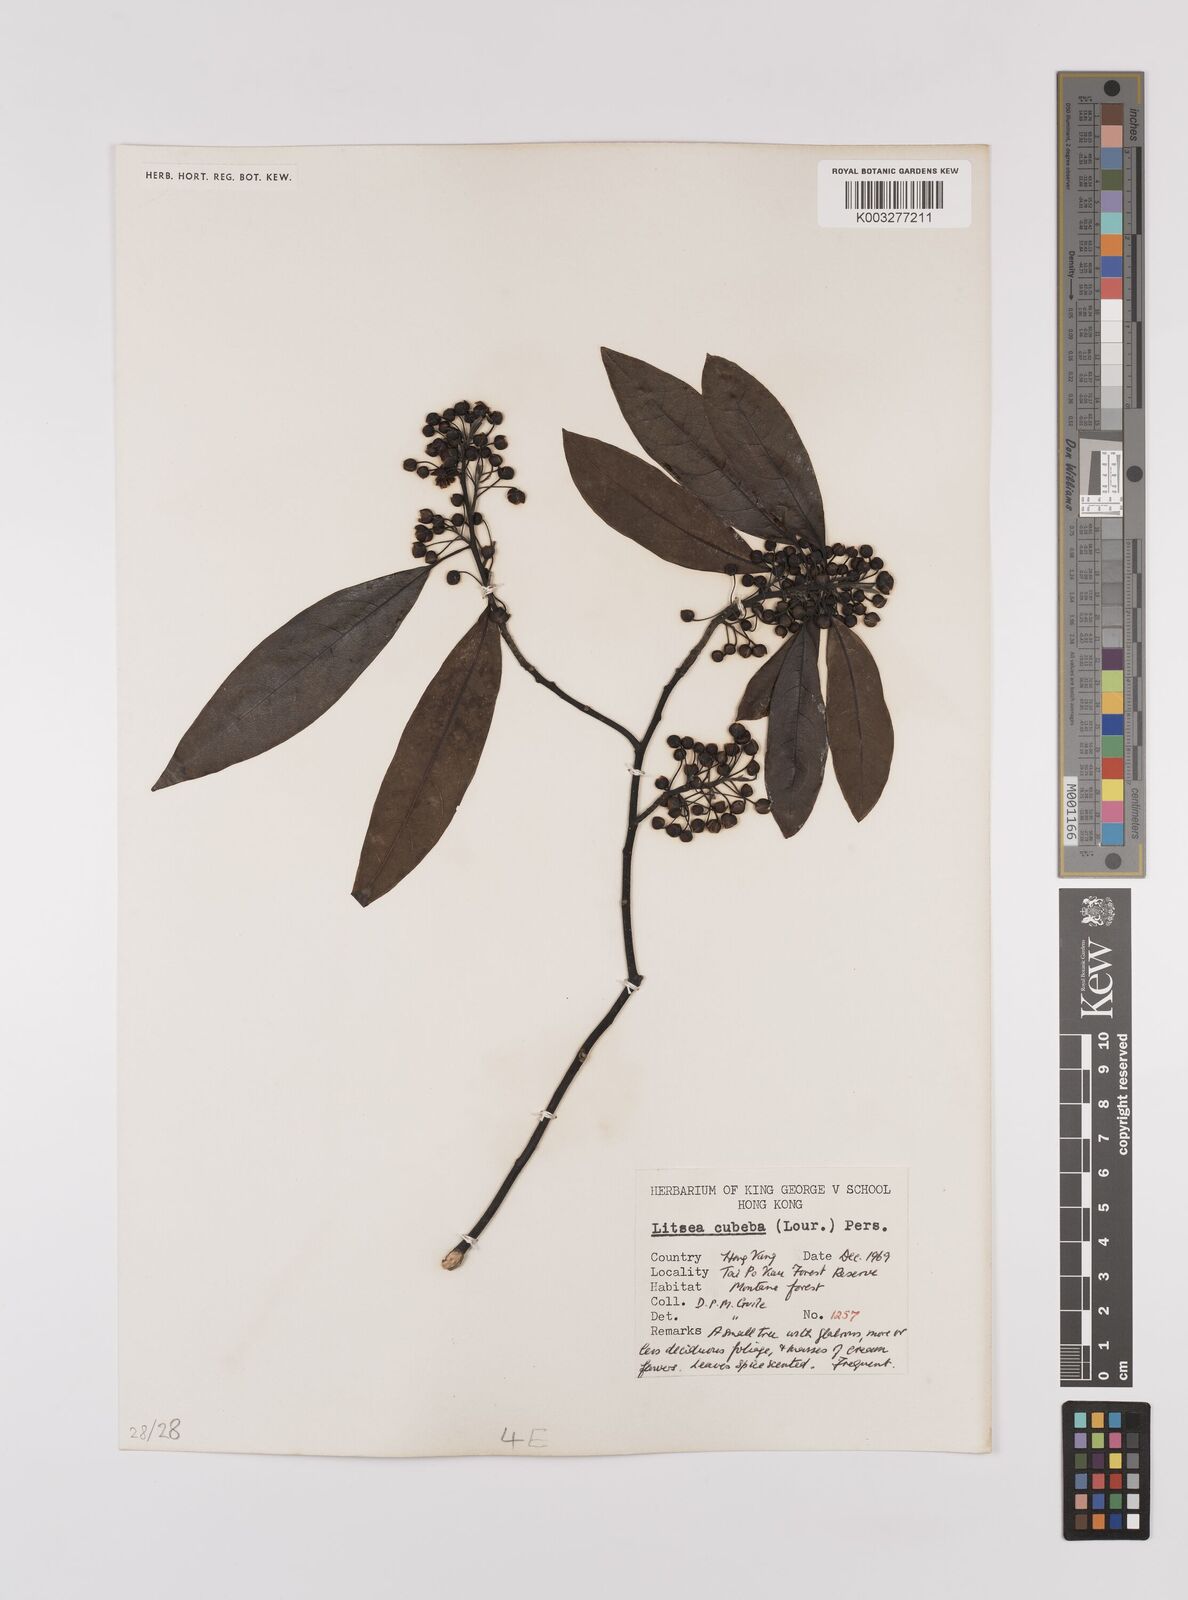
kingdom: Plantae
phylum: Tracheophyta
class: Magnoliopsida
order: Laurales
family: Lauraceae
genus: Litsea
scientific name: Litsea cubeba
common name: Mountain-pepper
